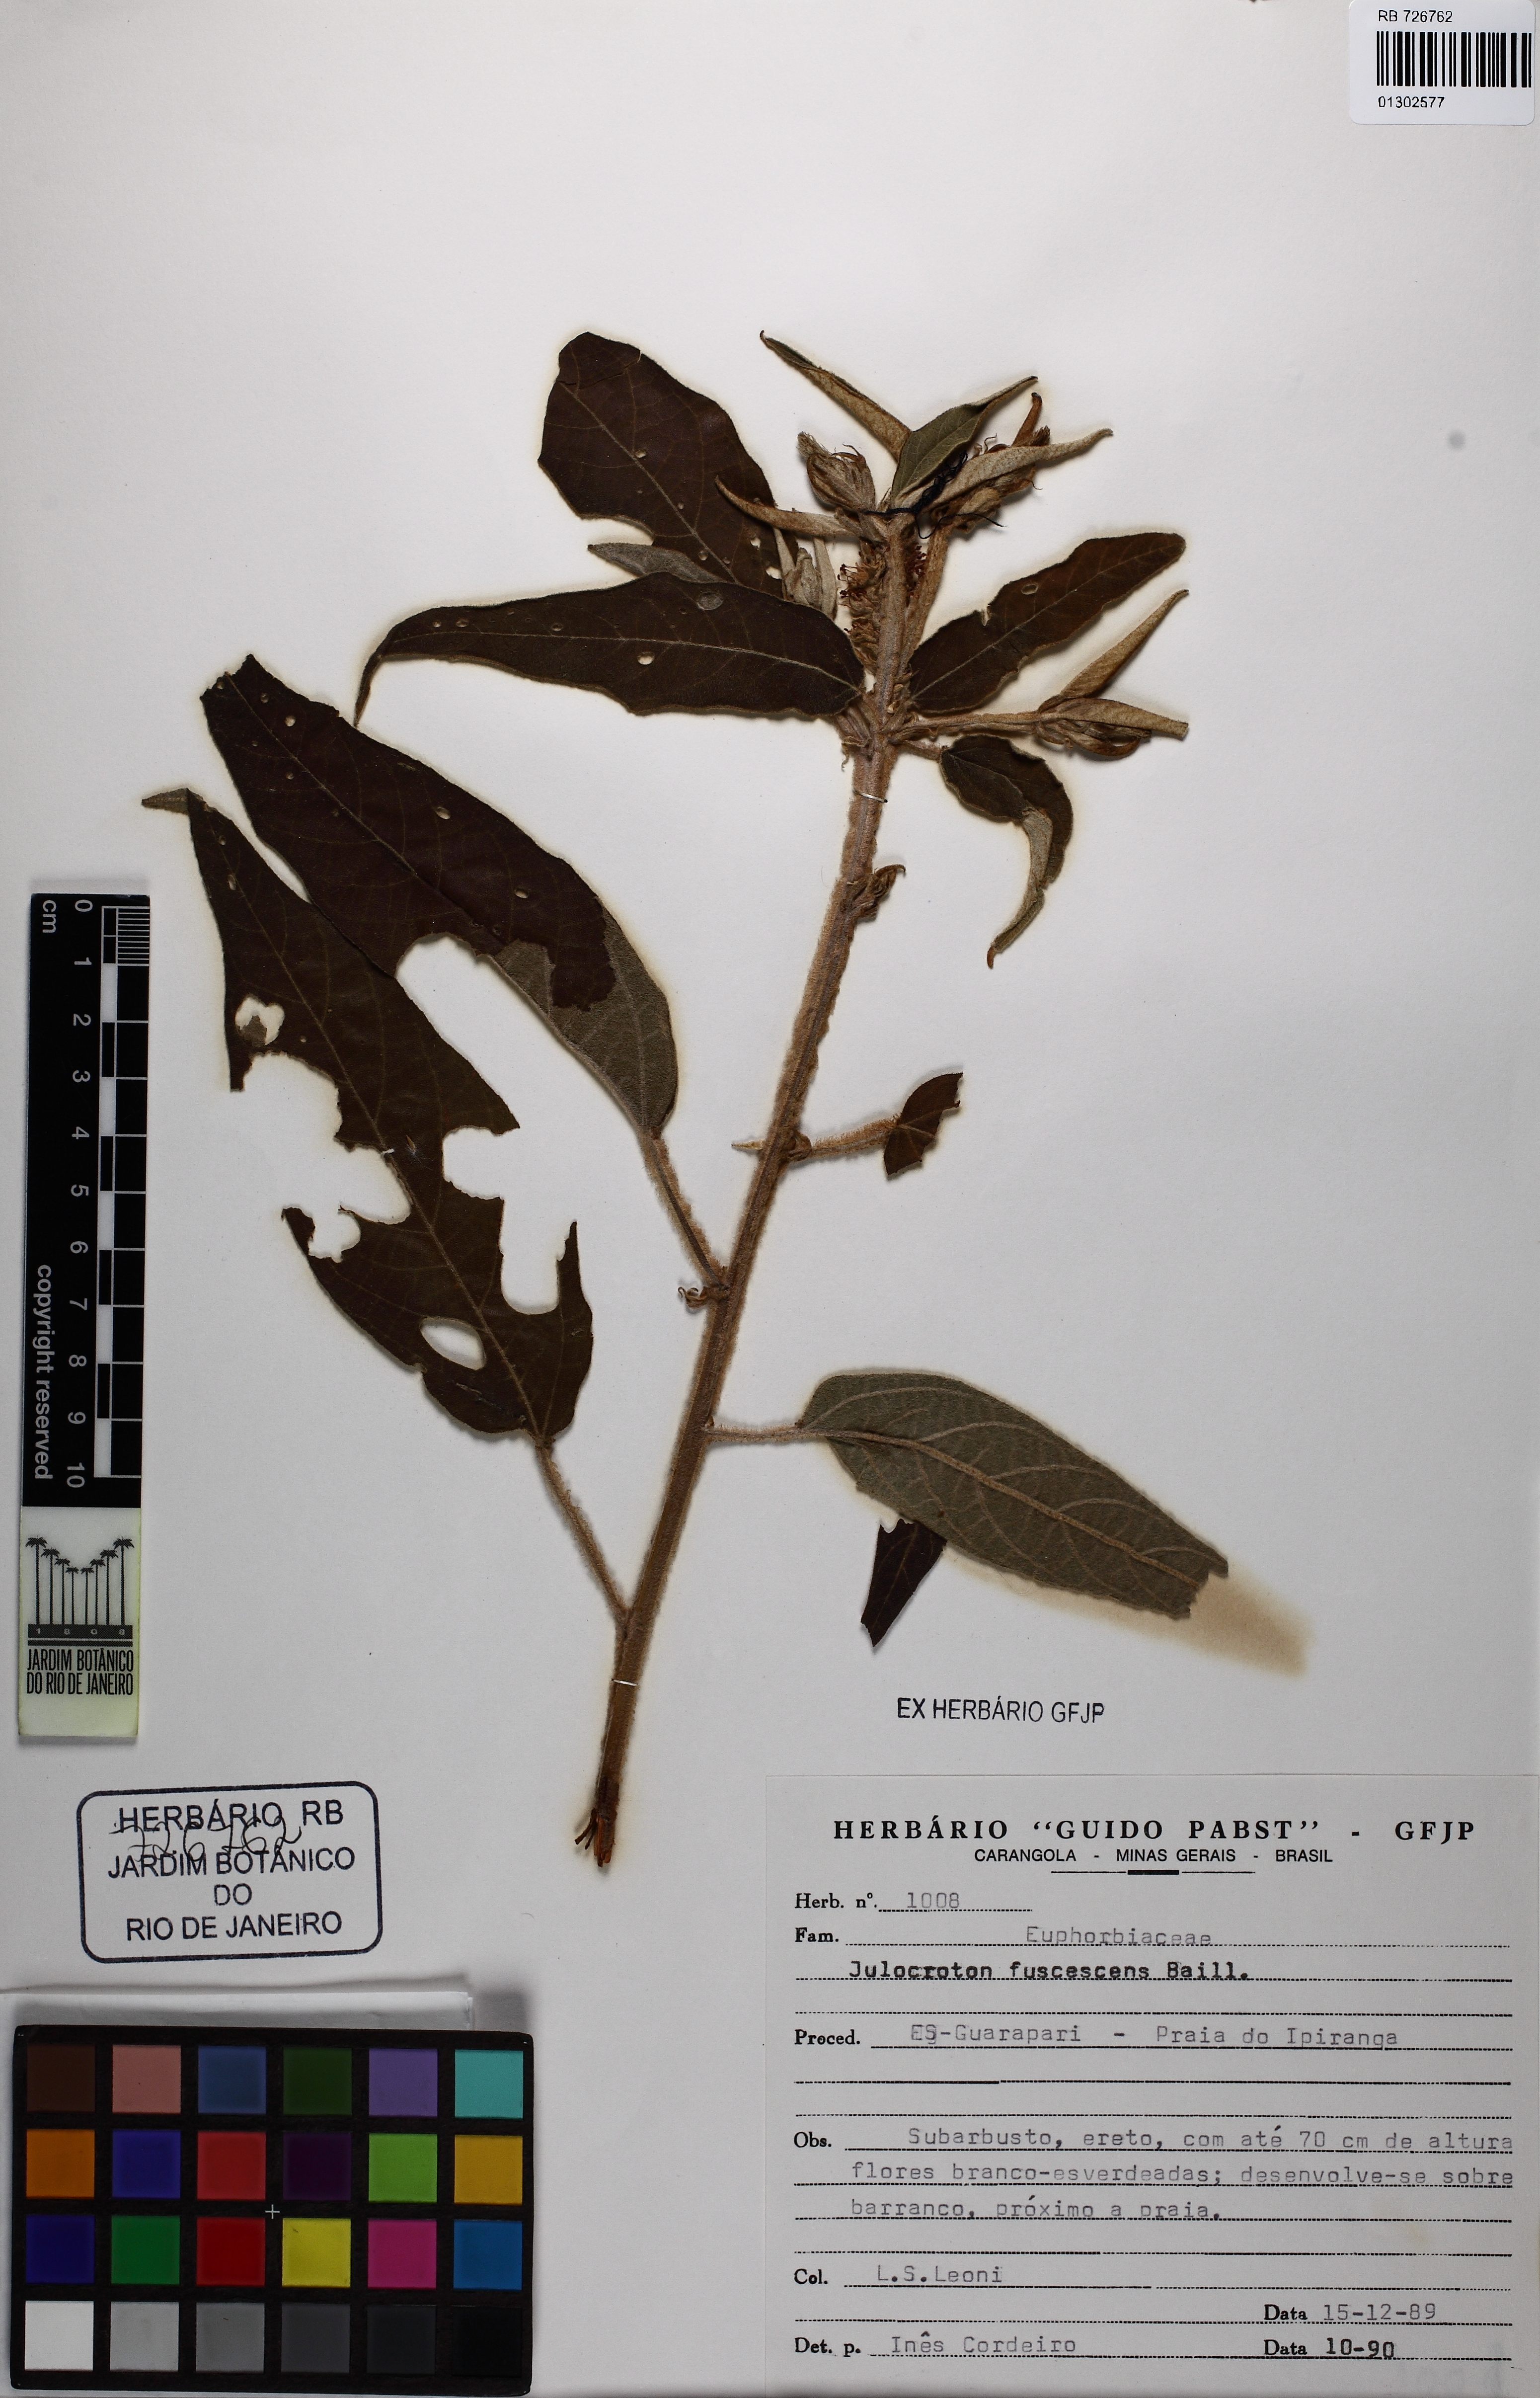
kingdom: Plantae
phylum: Tracheophyta
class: Magnoliopsida
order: Malpighiales
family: Euphorbiaceae
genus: Croton
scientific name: Croton gnaphaloides
